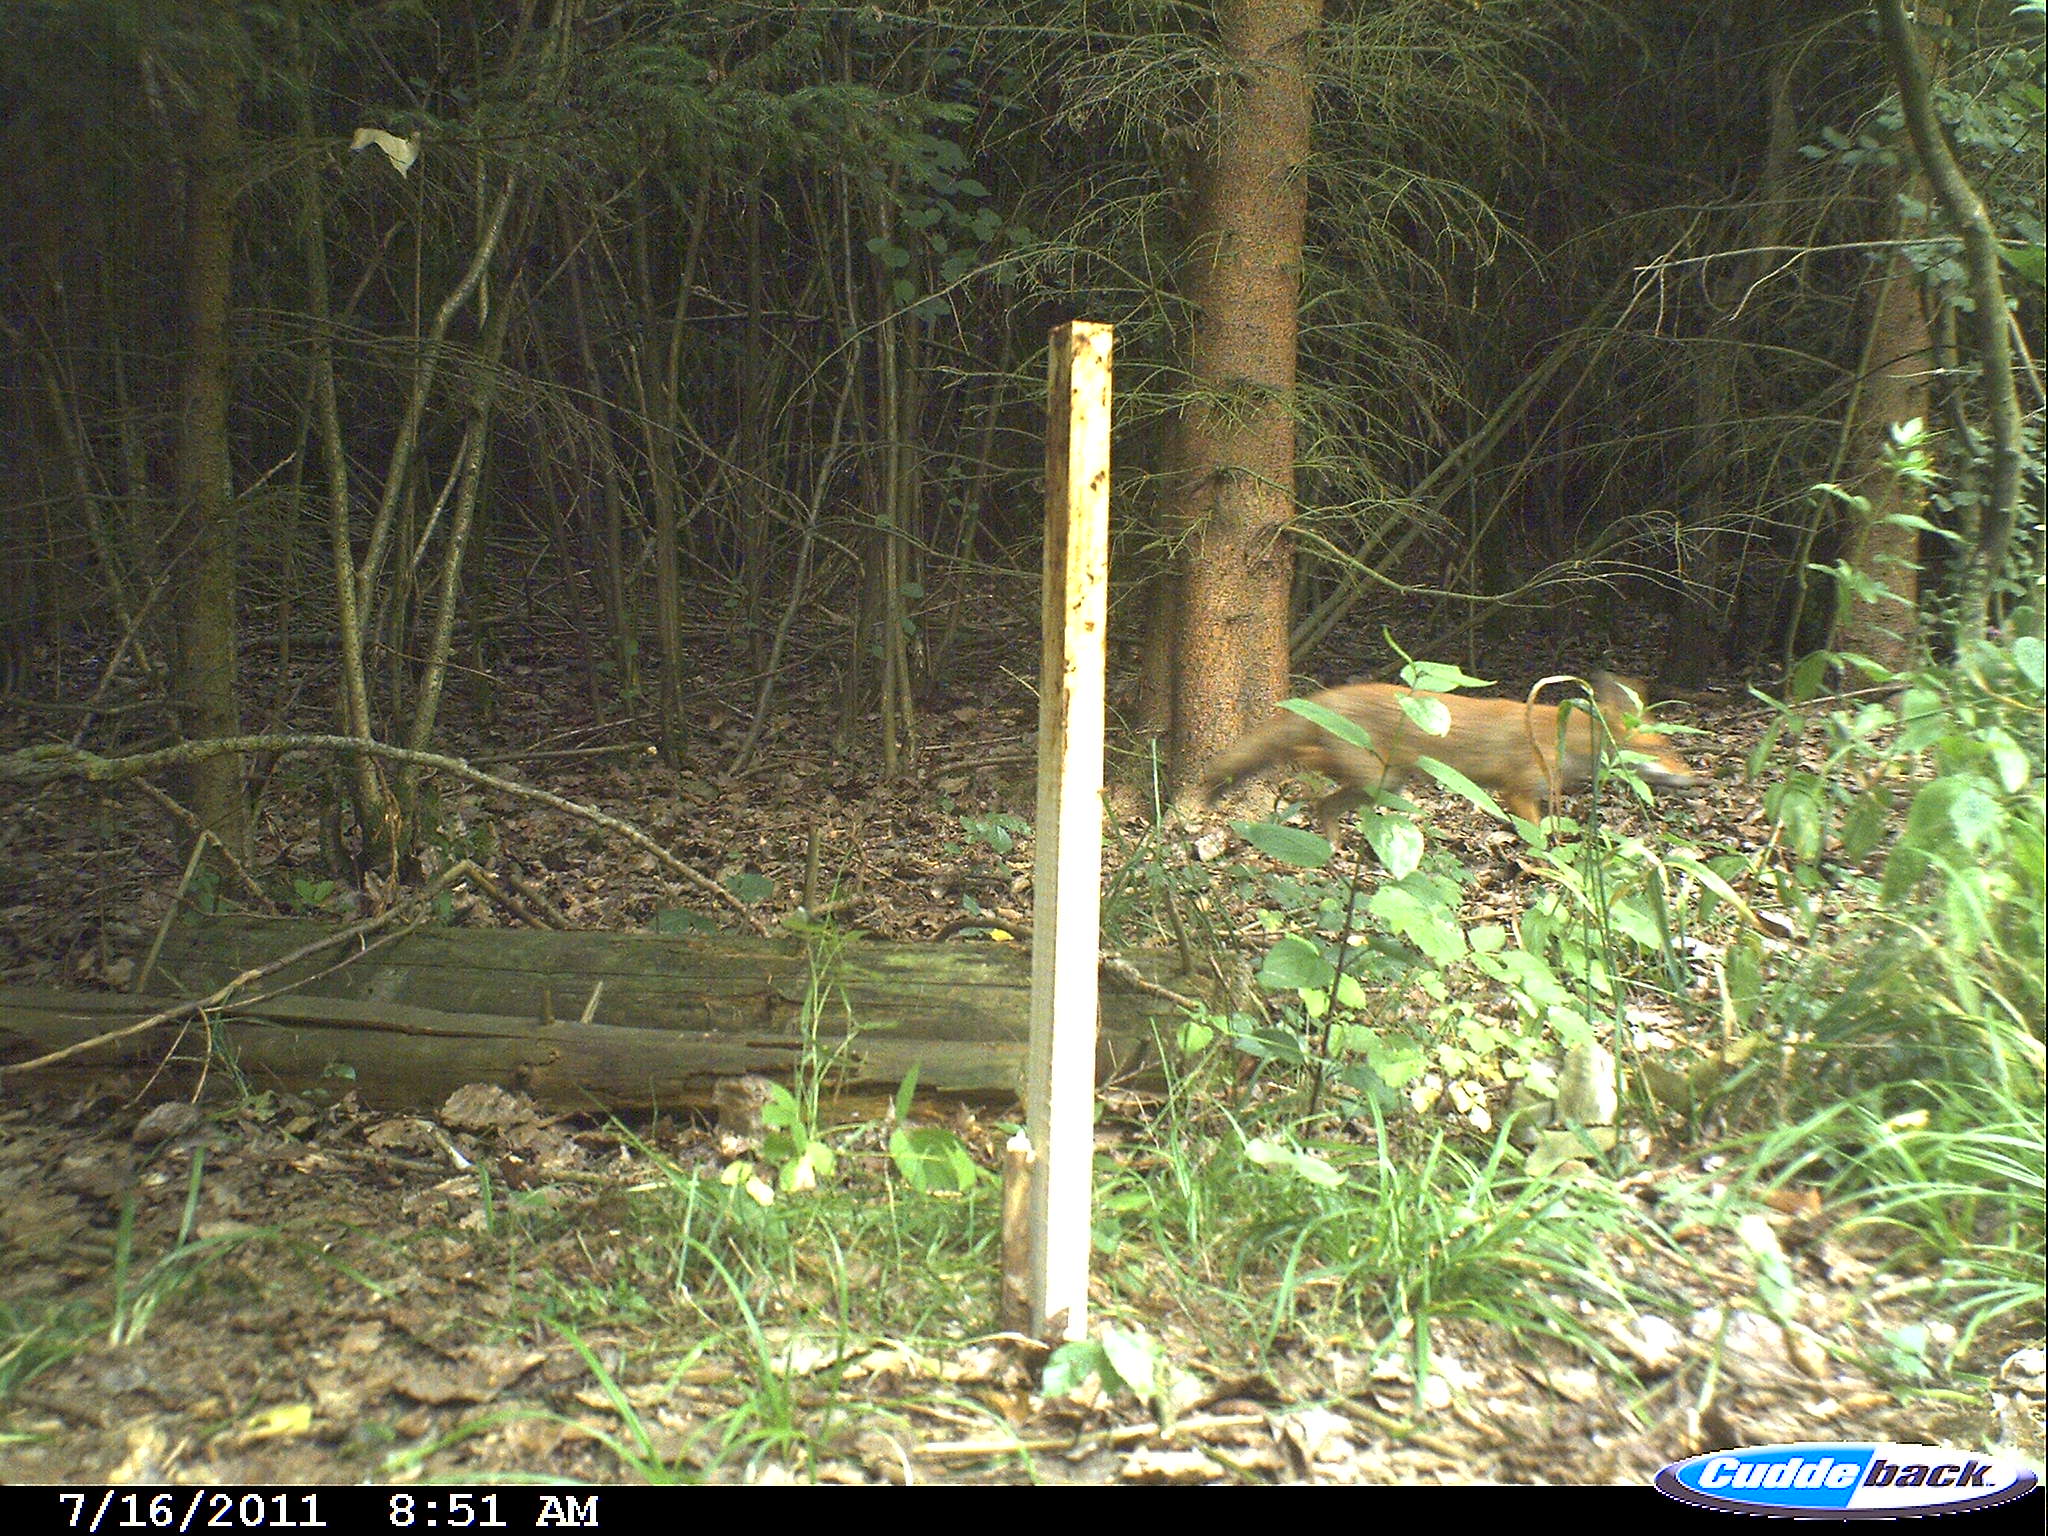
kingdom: Animalia
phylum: Chordata
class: Mammalia
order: Carnivora
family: Canidae
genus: Vulpes
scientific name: Vulpes vulpes
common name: Red fox
